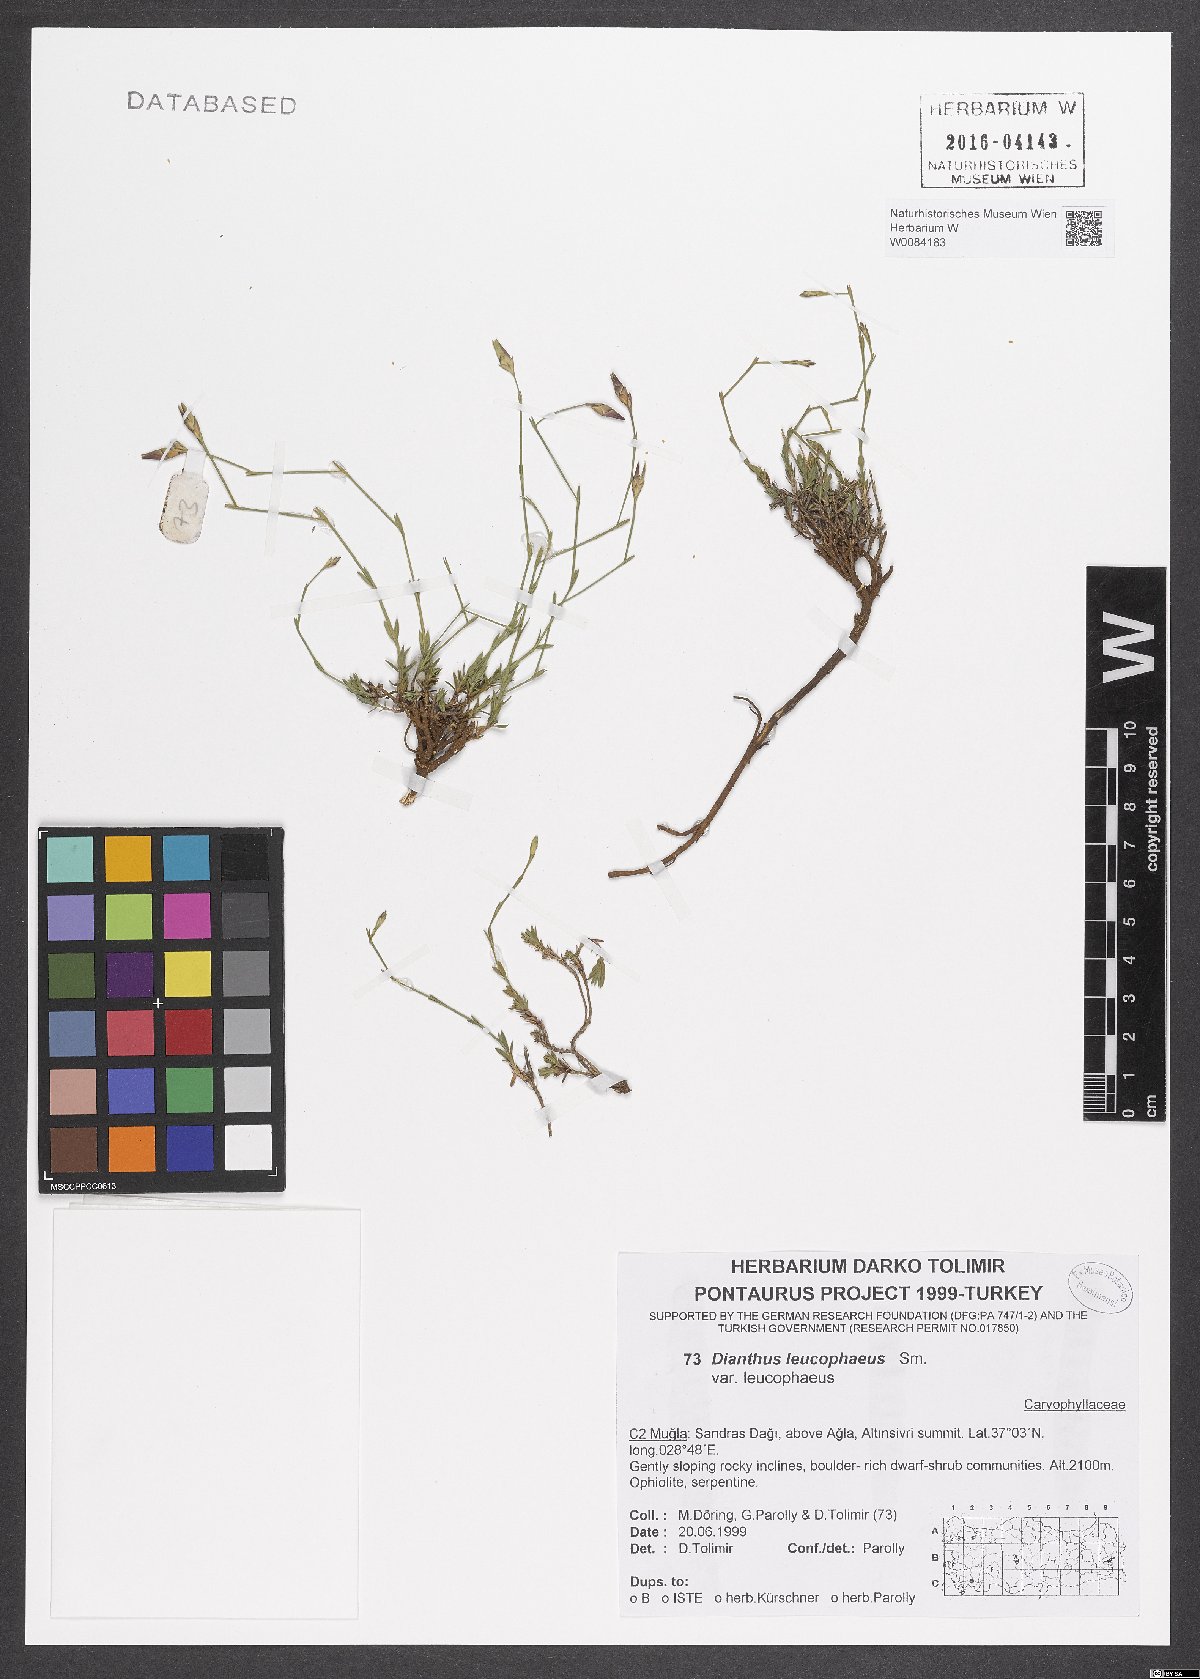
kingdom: Plantae
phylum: Tracheophyta
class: Magnoliopsida
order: Caryophyllales
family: Caryophyllaceae
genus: Dianthus
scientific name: Dianthus leucophaeus
